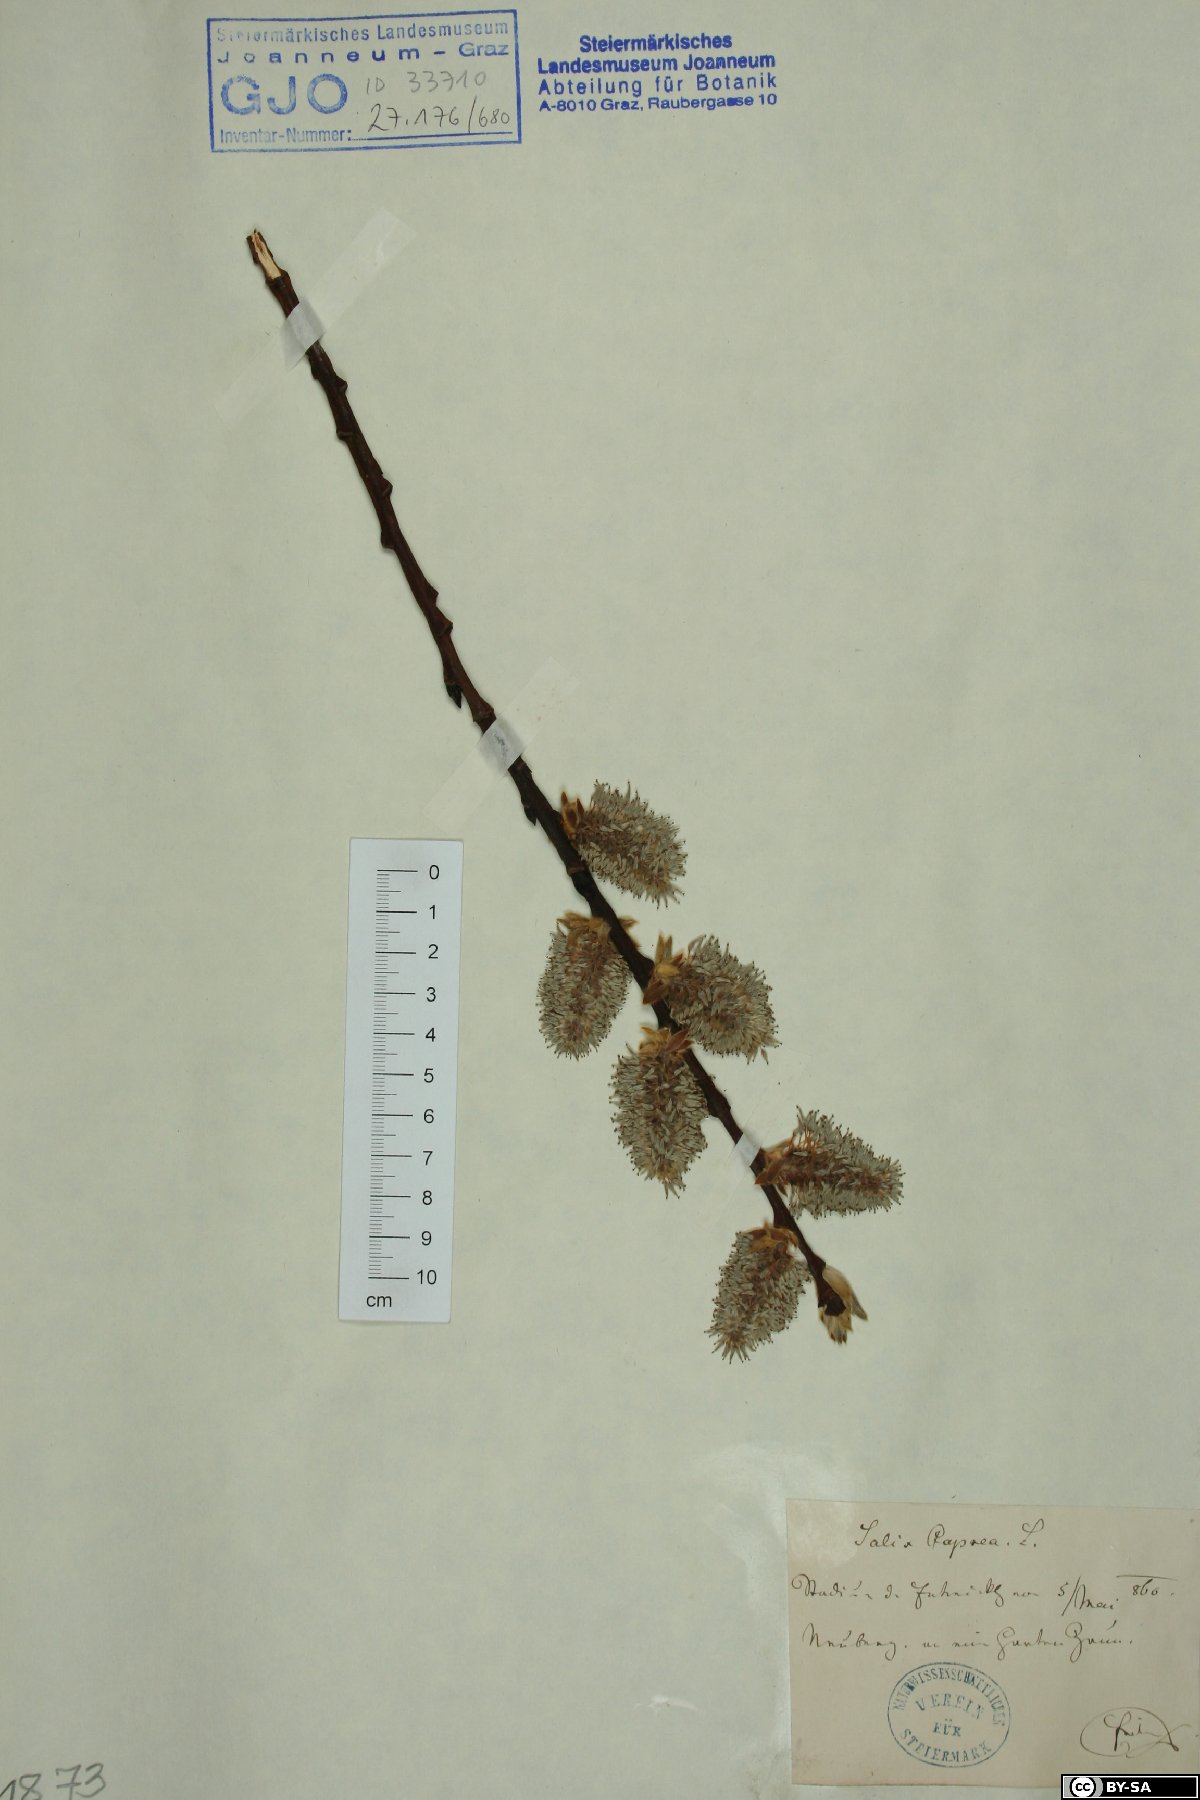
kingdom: Plantae
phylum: Tracheophyta
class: Magnoliopsida
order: Malpighiales
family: Salicaceae
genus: Salix
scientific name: Salix caprea
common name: Goat willow
